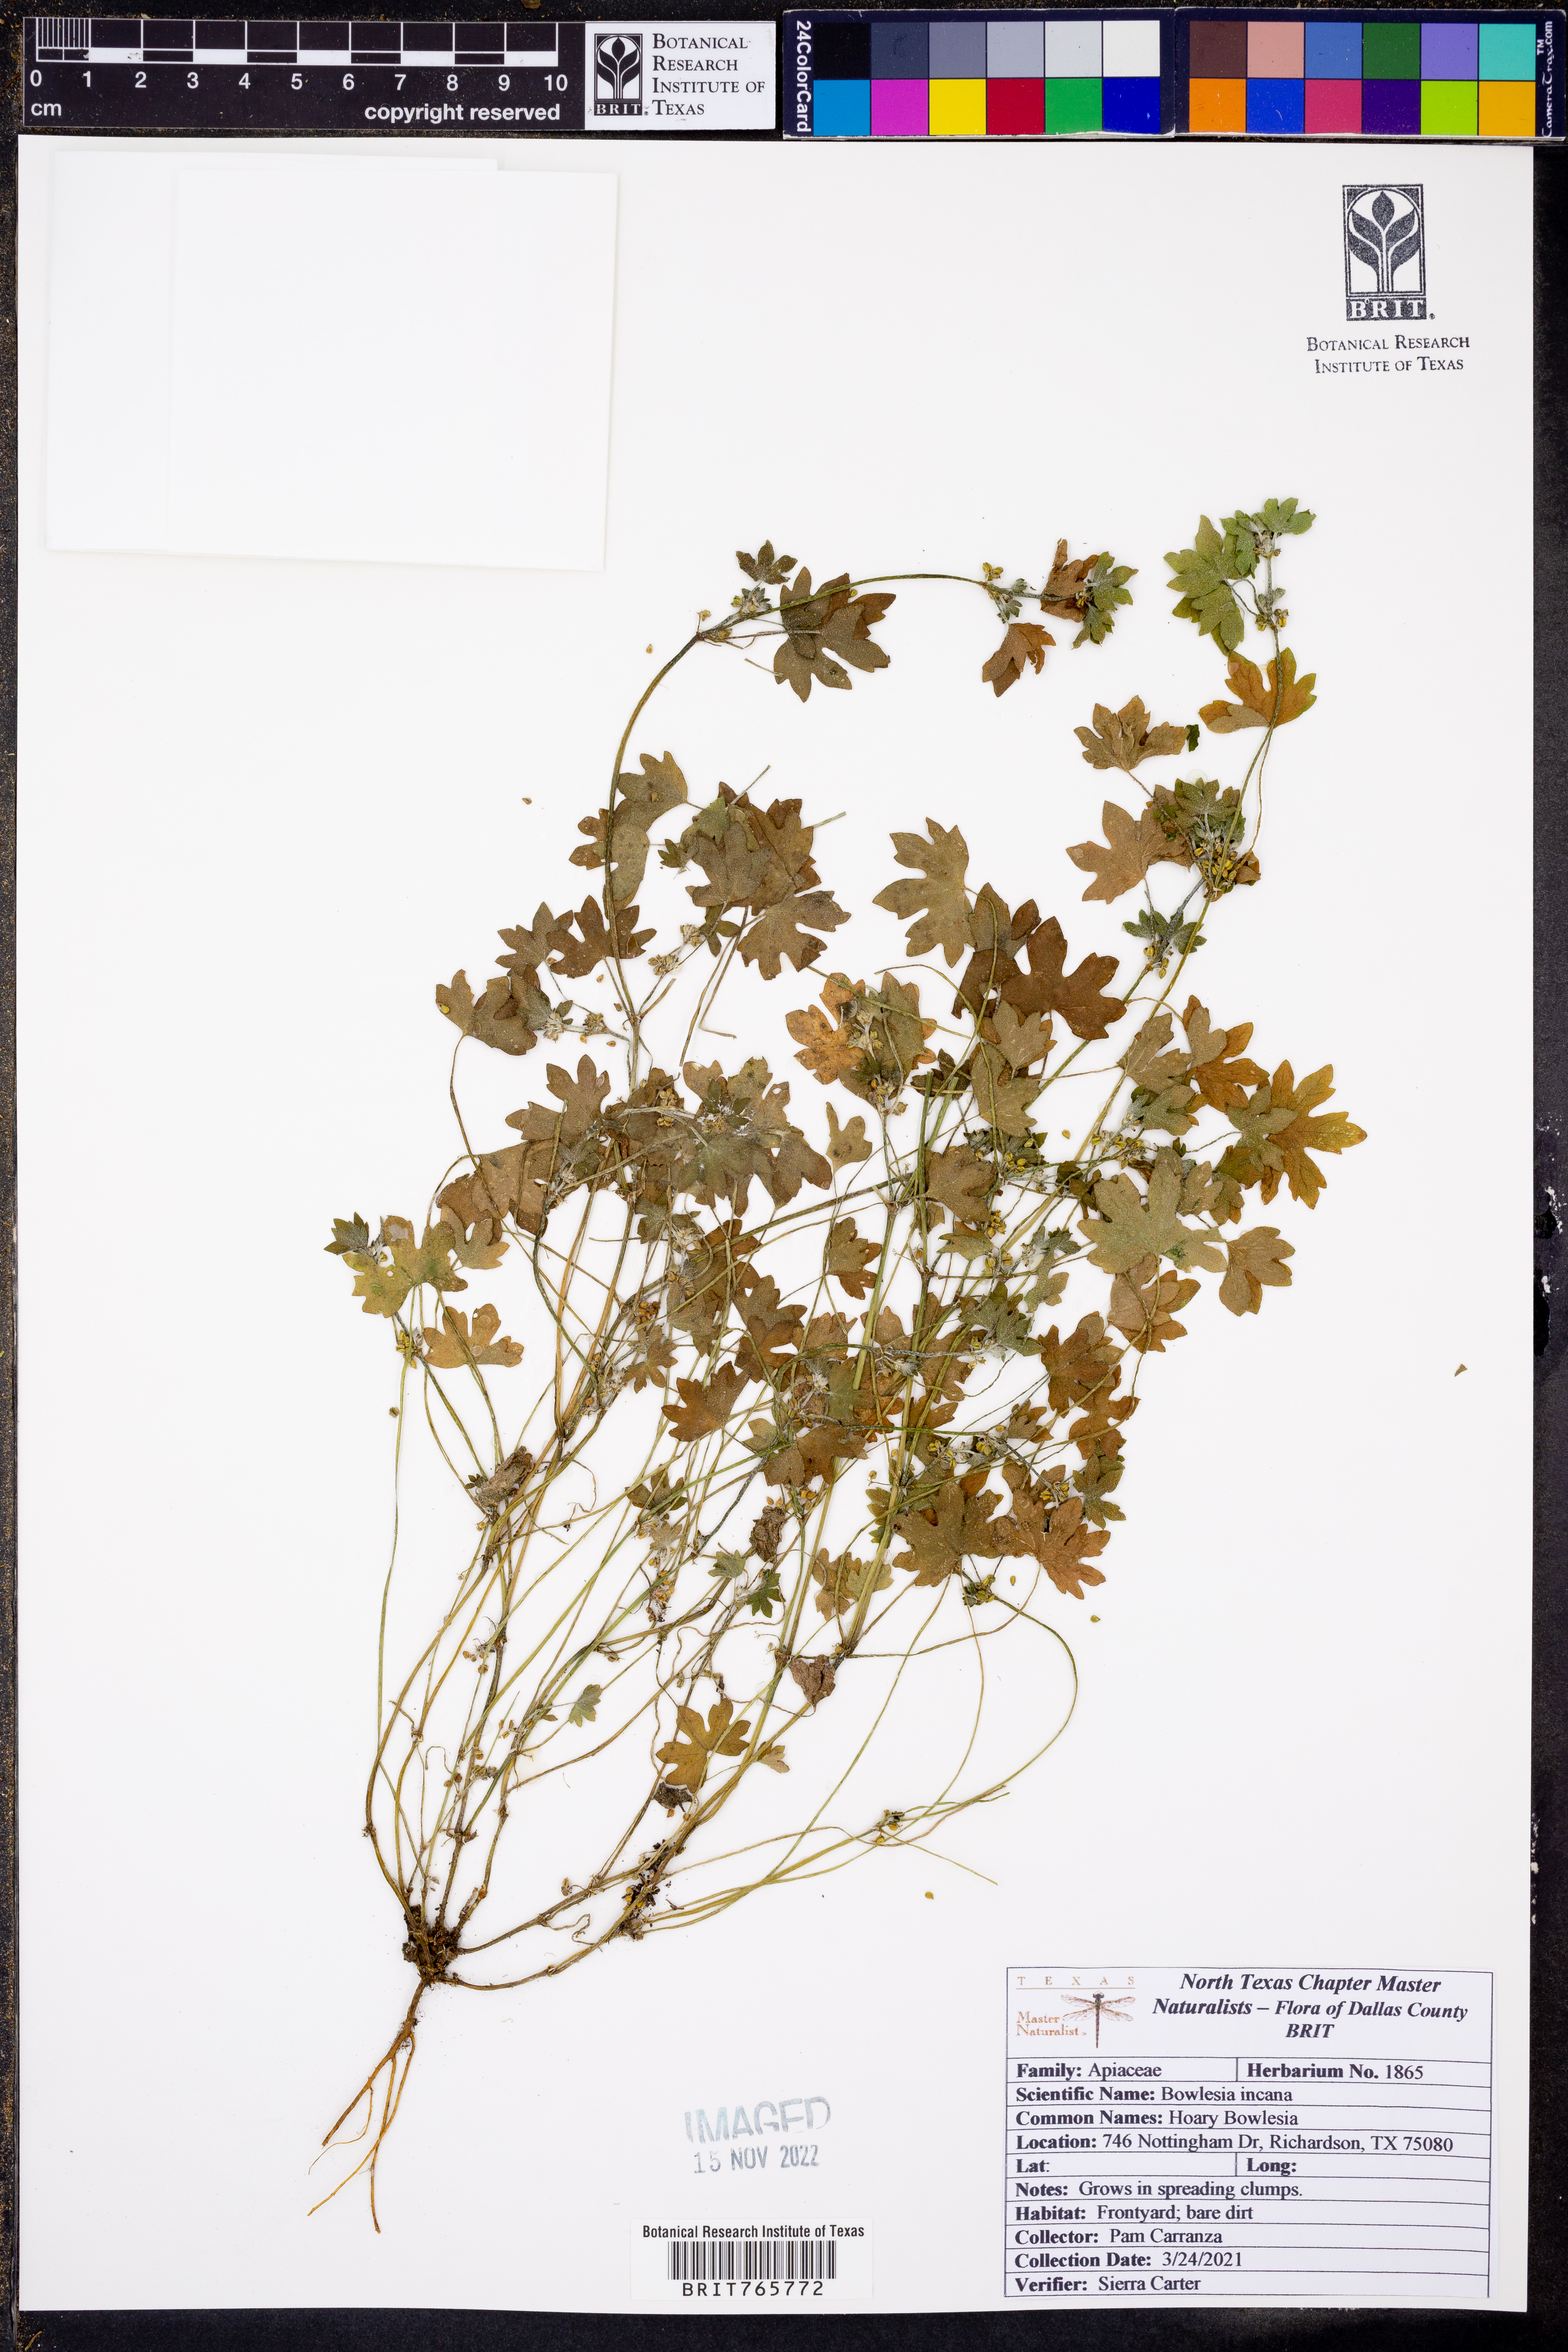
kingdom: Plantae
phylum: Tracheophyta
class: Magnoliopsida
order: Apiales
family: Apiaceae
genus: Bowlesia
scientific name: Bowlesia incana
